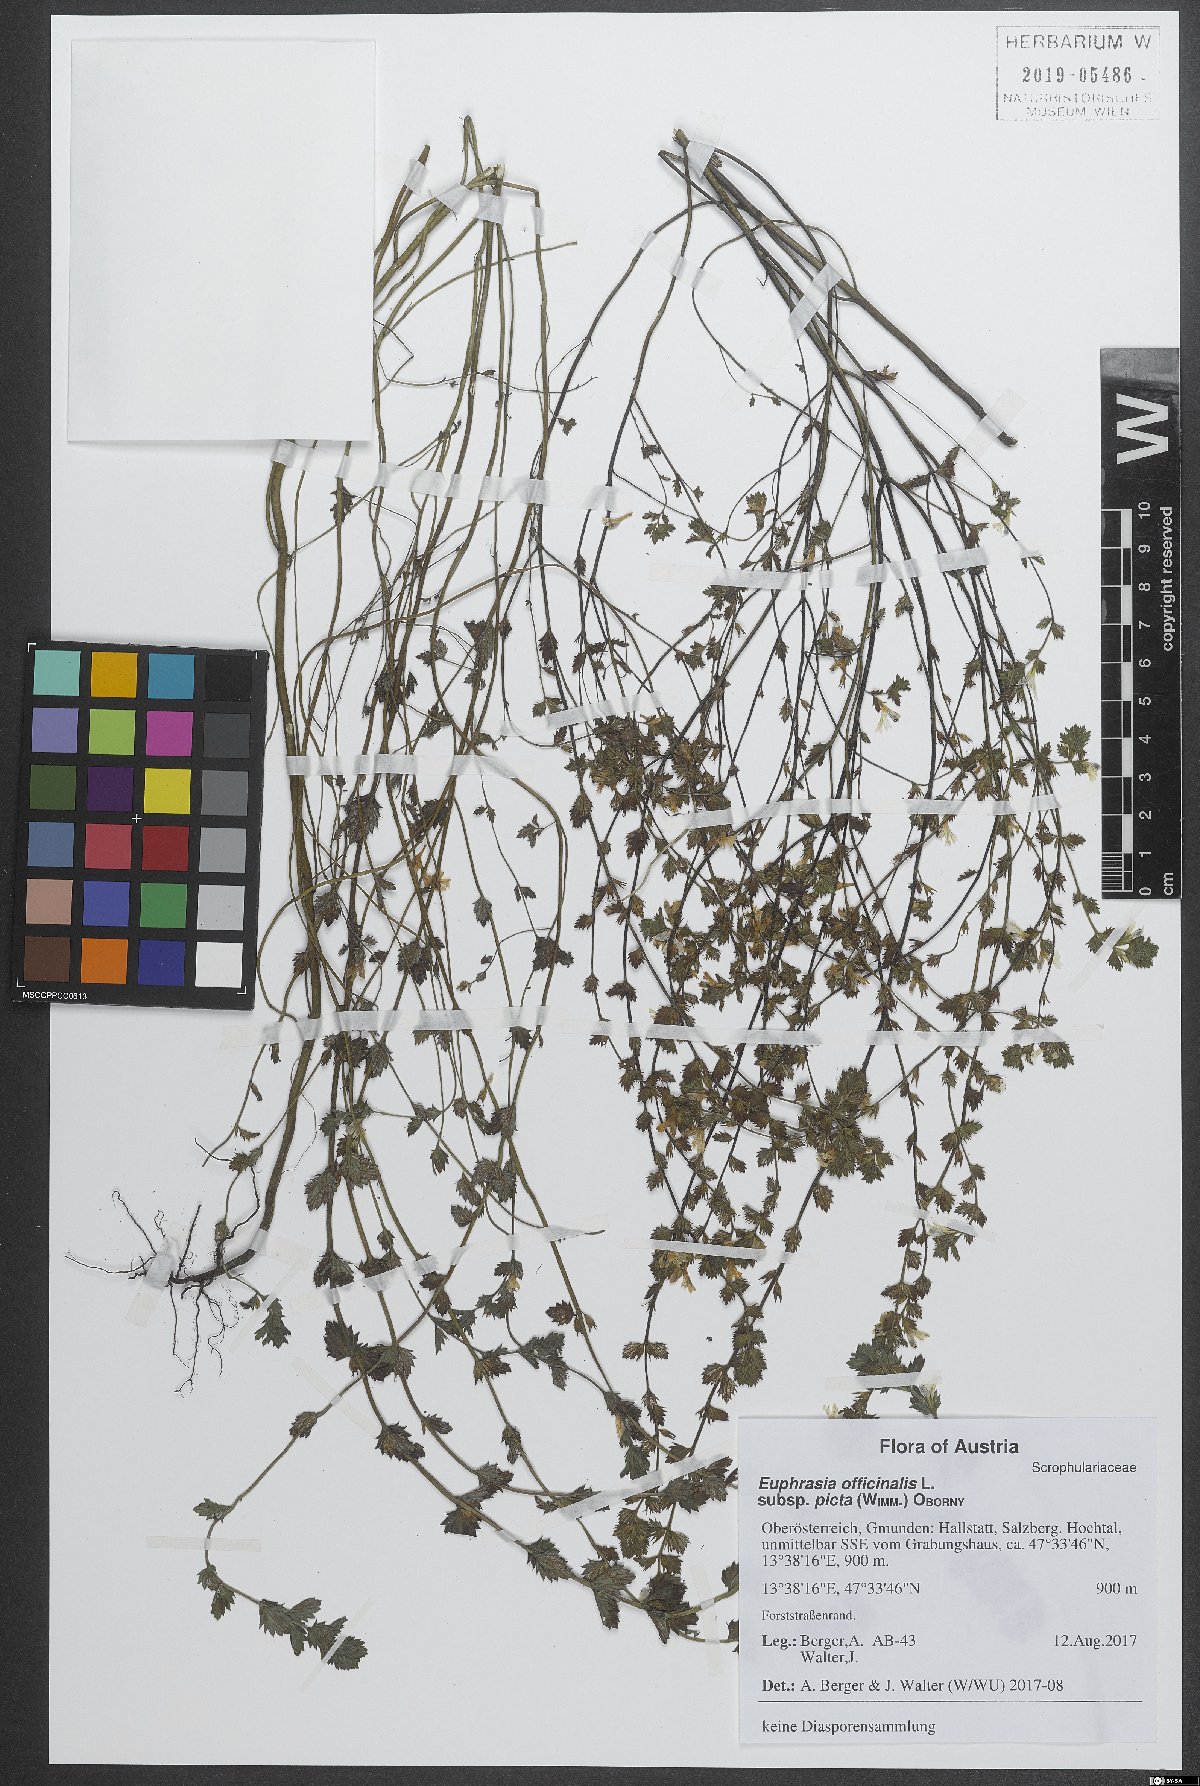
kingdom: Plantae
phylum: Tracheophyta
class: Magnoliopsida
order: Lamiales
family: Orobanchaceae
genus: Euphrasia
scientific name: Euphrasia officinalis
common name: Eyebright
